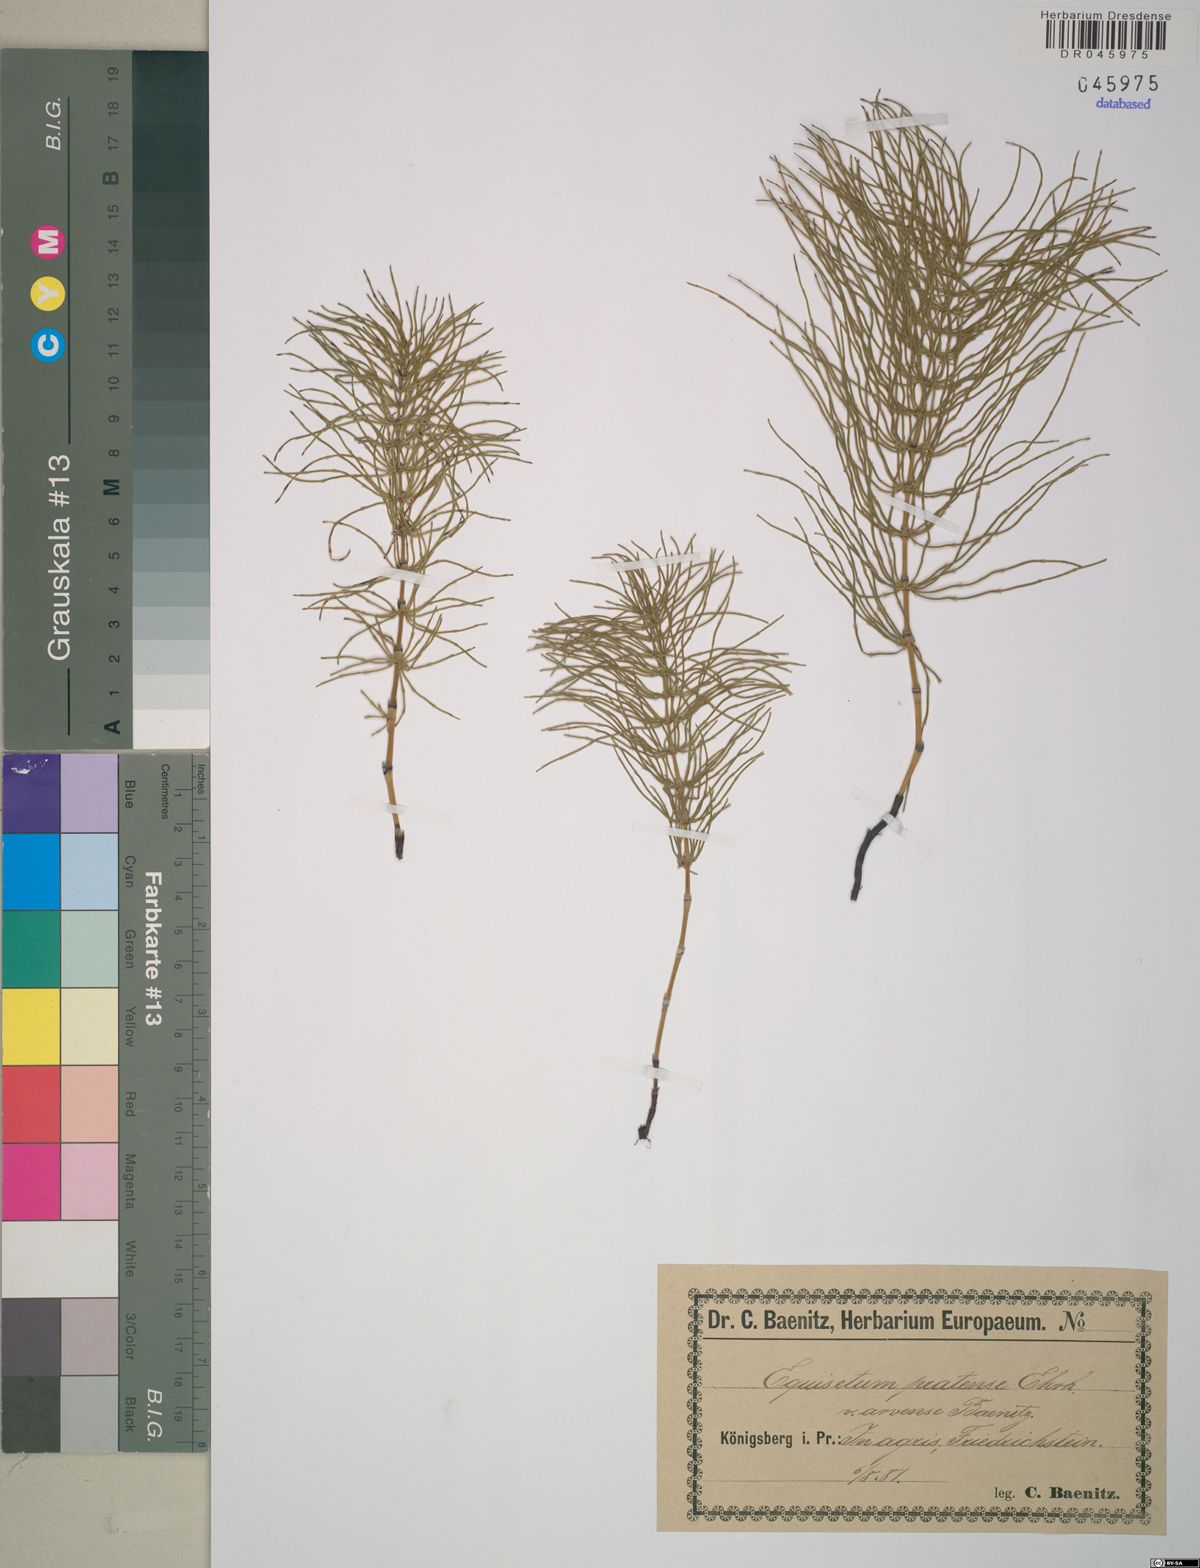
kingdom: Plantae
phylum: Tracheophyta
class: Polypodiopsida
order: Equisetales
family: Equisetaceae
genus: Equisetum
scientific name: Equisetum pratense
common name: Meadow horsetail
